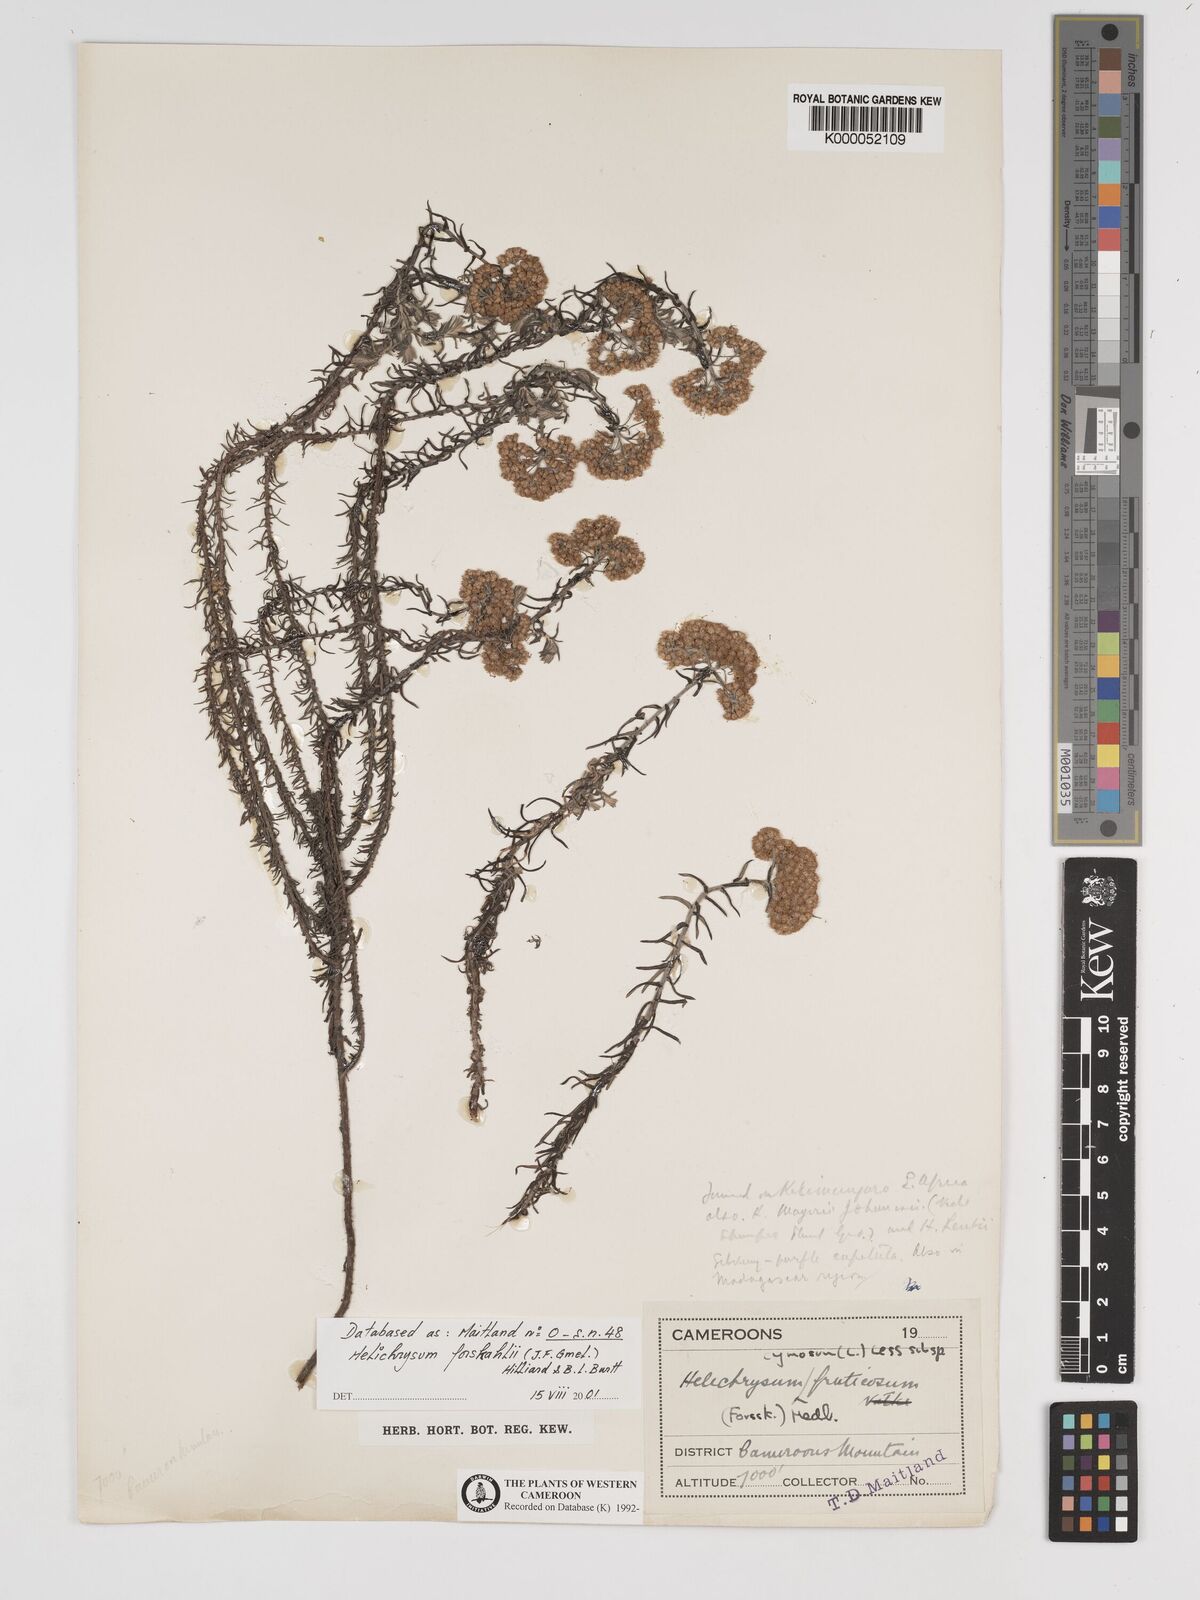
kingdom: Plantae
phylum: Tracheophyta
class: Magnoliopsida
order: Asterales
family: Asteraceae
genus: Helichrysum
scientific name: Helichrysum forskahlii
